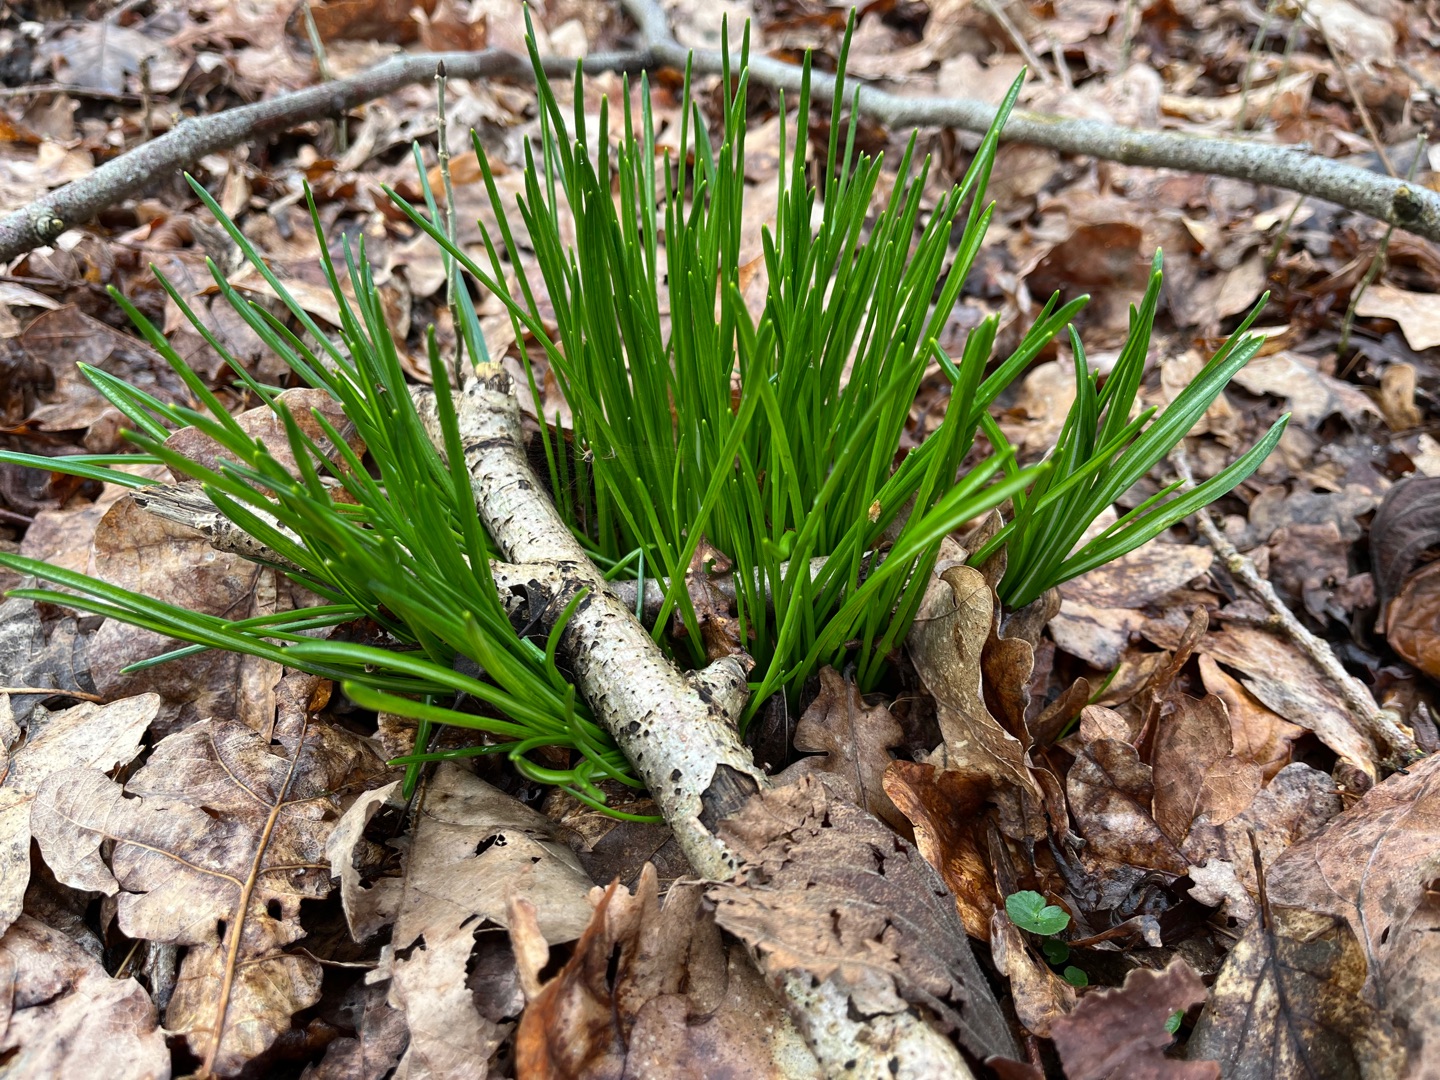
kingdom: Plantae
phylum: Tracheophyta
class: Liliopsida
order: Asparagales
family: Asparagaceae
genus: Ornithogalum
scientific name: Ornithogalum umbellatum
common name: Kost-fuglemælk
